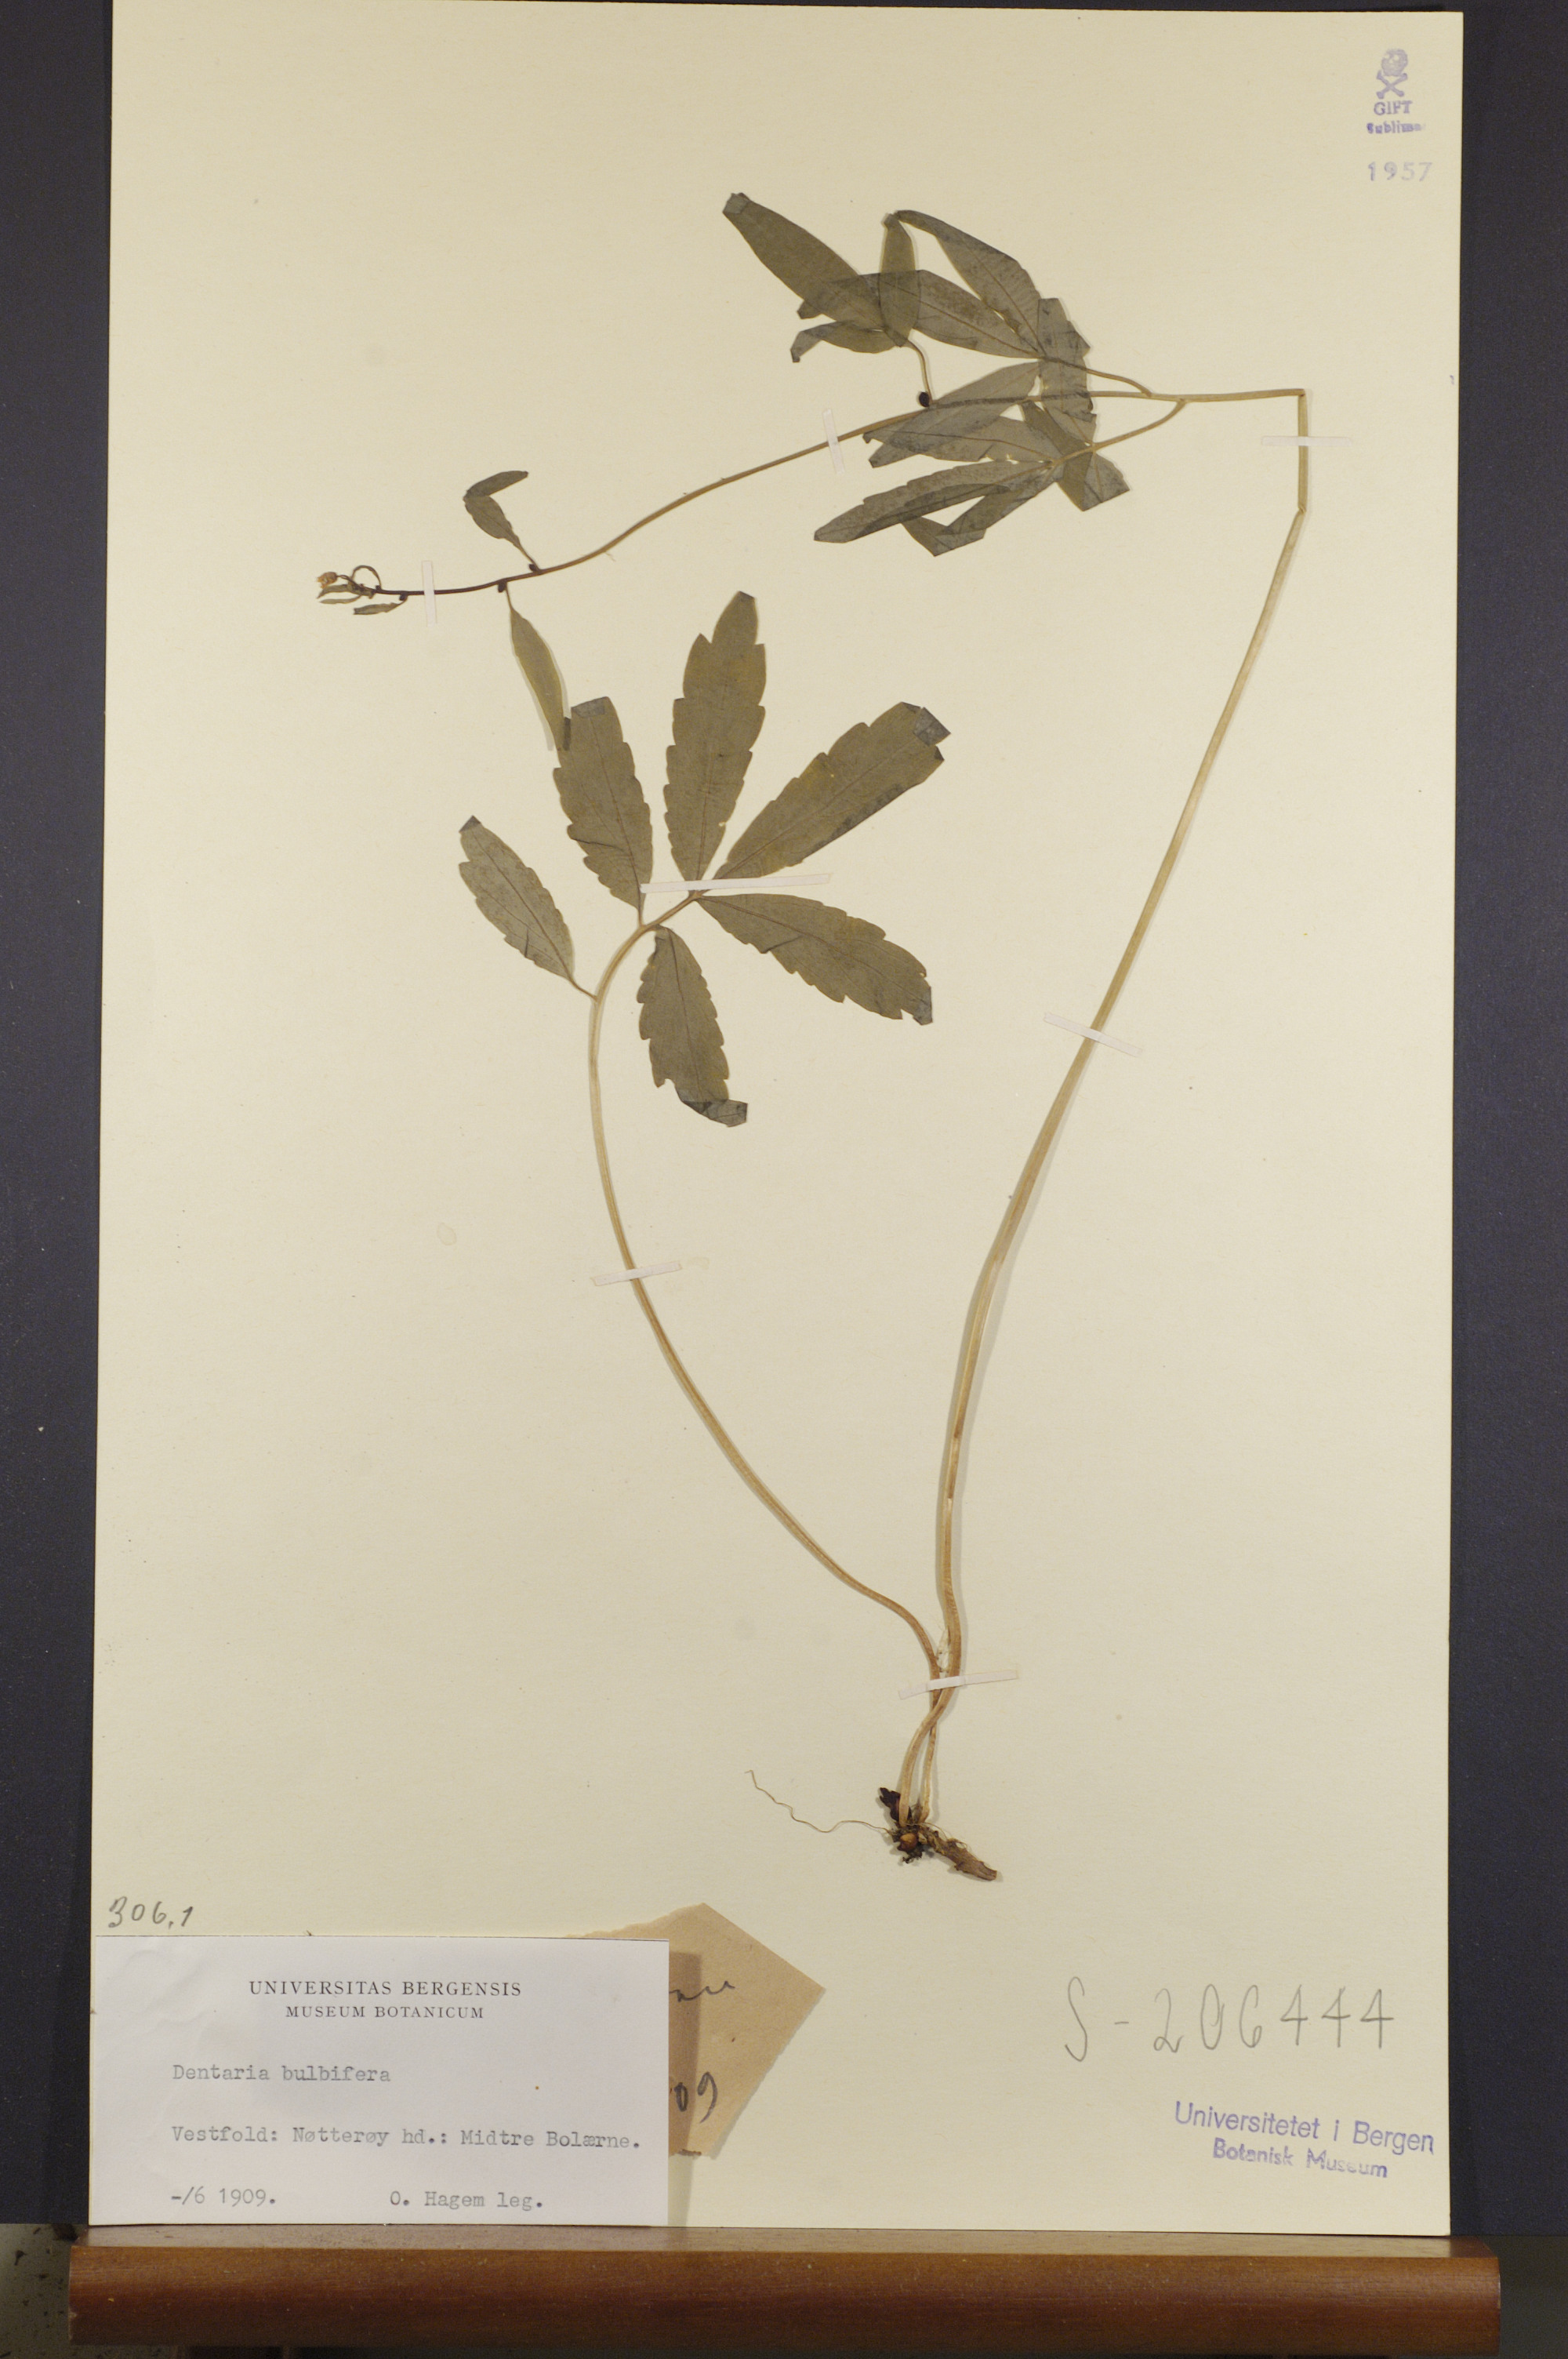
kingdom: Plantae
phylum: Tracheophyta
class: Magnoliopsida
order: Brassicales
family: Brassicaceae
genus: Cardamine
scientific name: Cardamine bulbifera
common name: Coralroot bittercress
